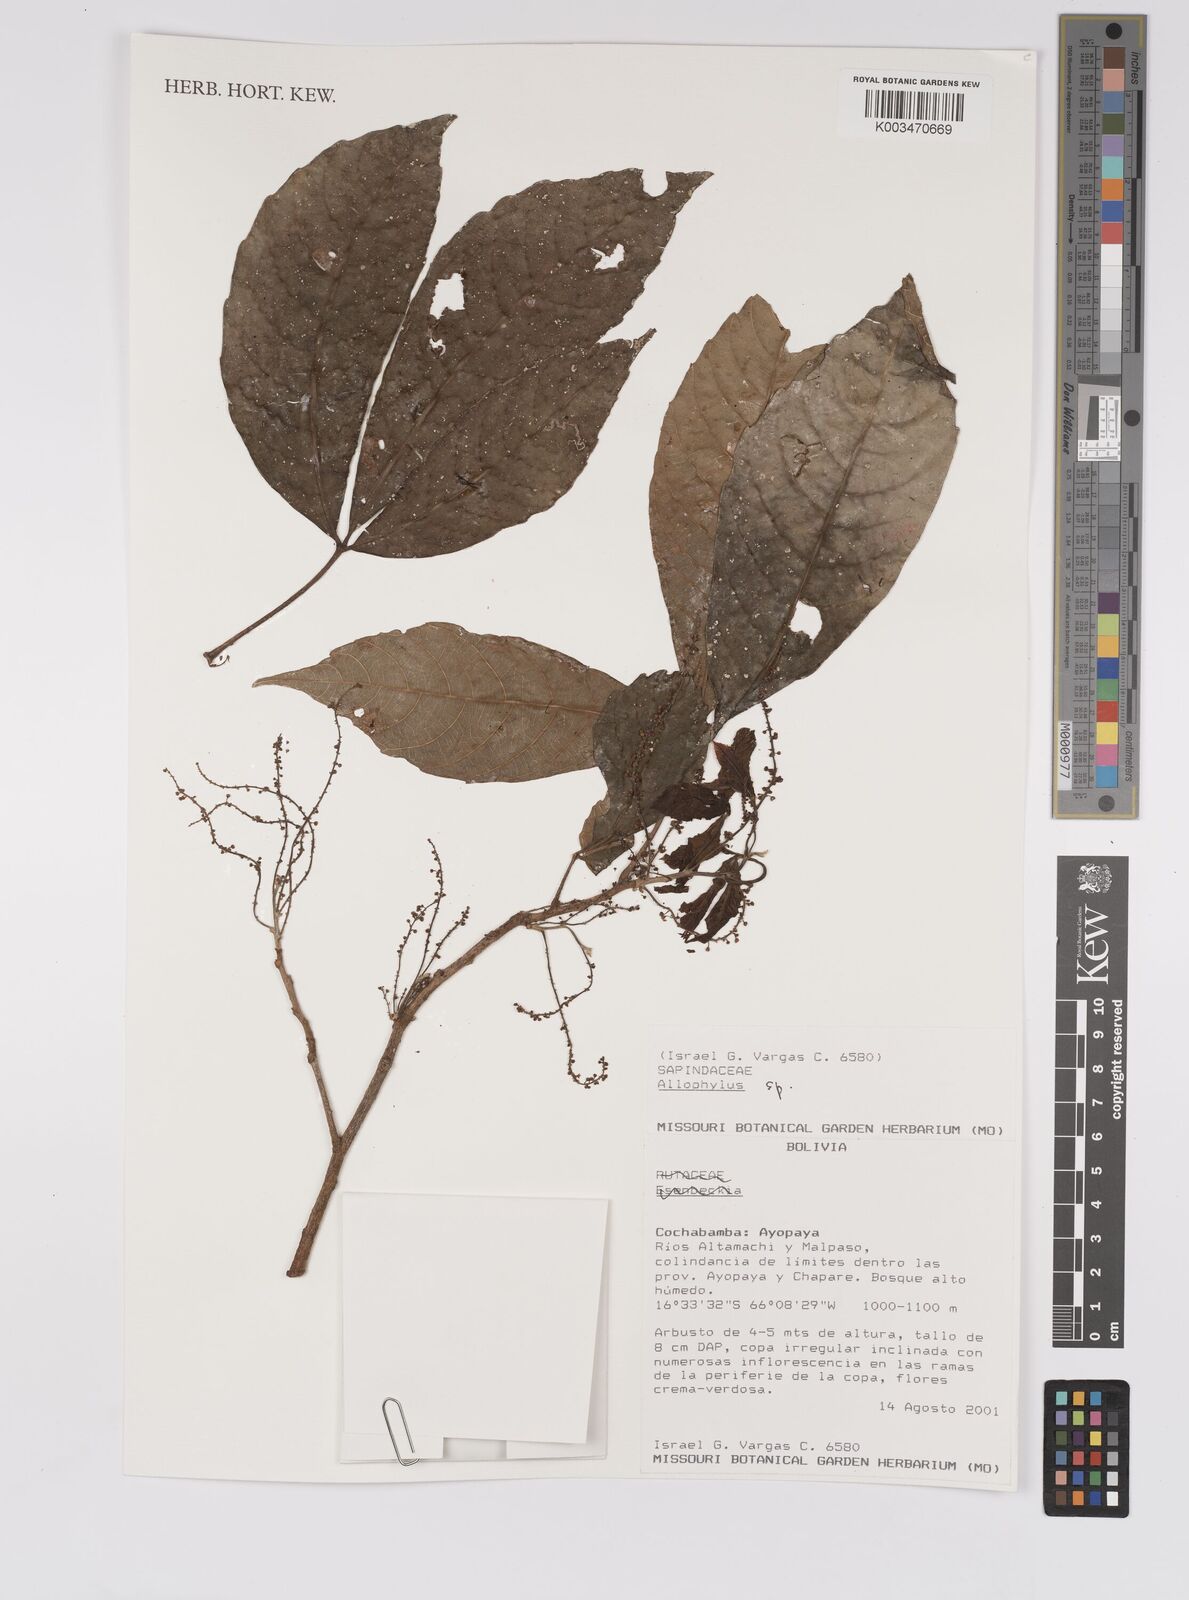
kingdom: Plantae
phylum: Tracheophyta
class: Magnoliopsida
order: Sapindales
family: Sapindaceae
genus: Allophylus
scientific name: Allophylus
